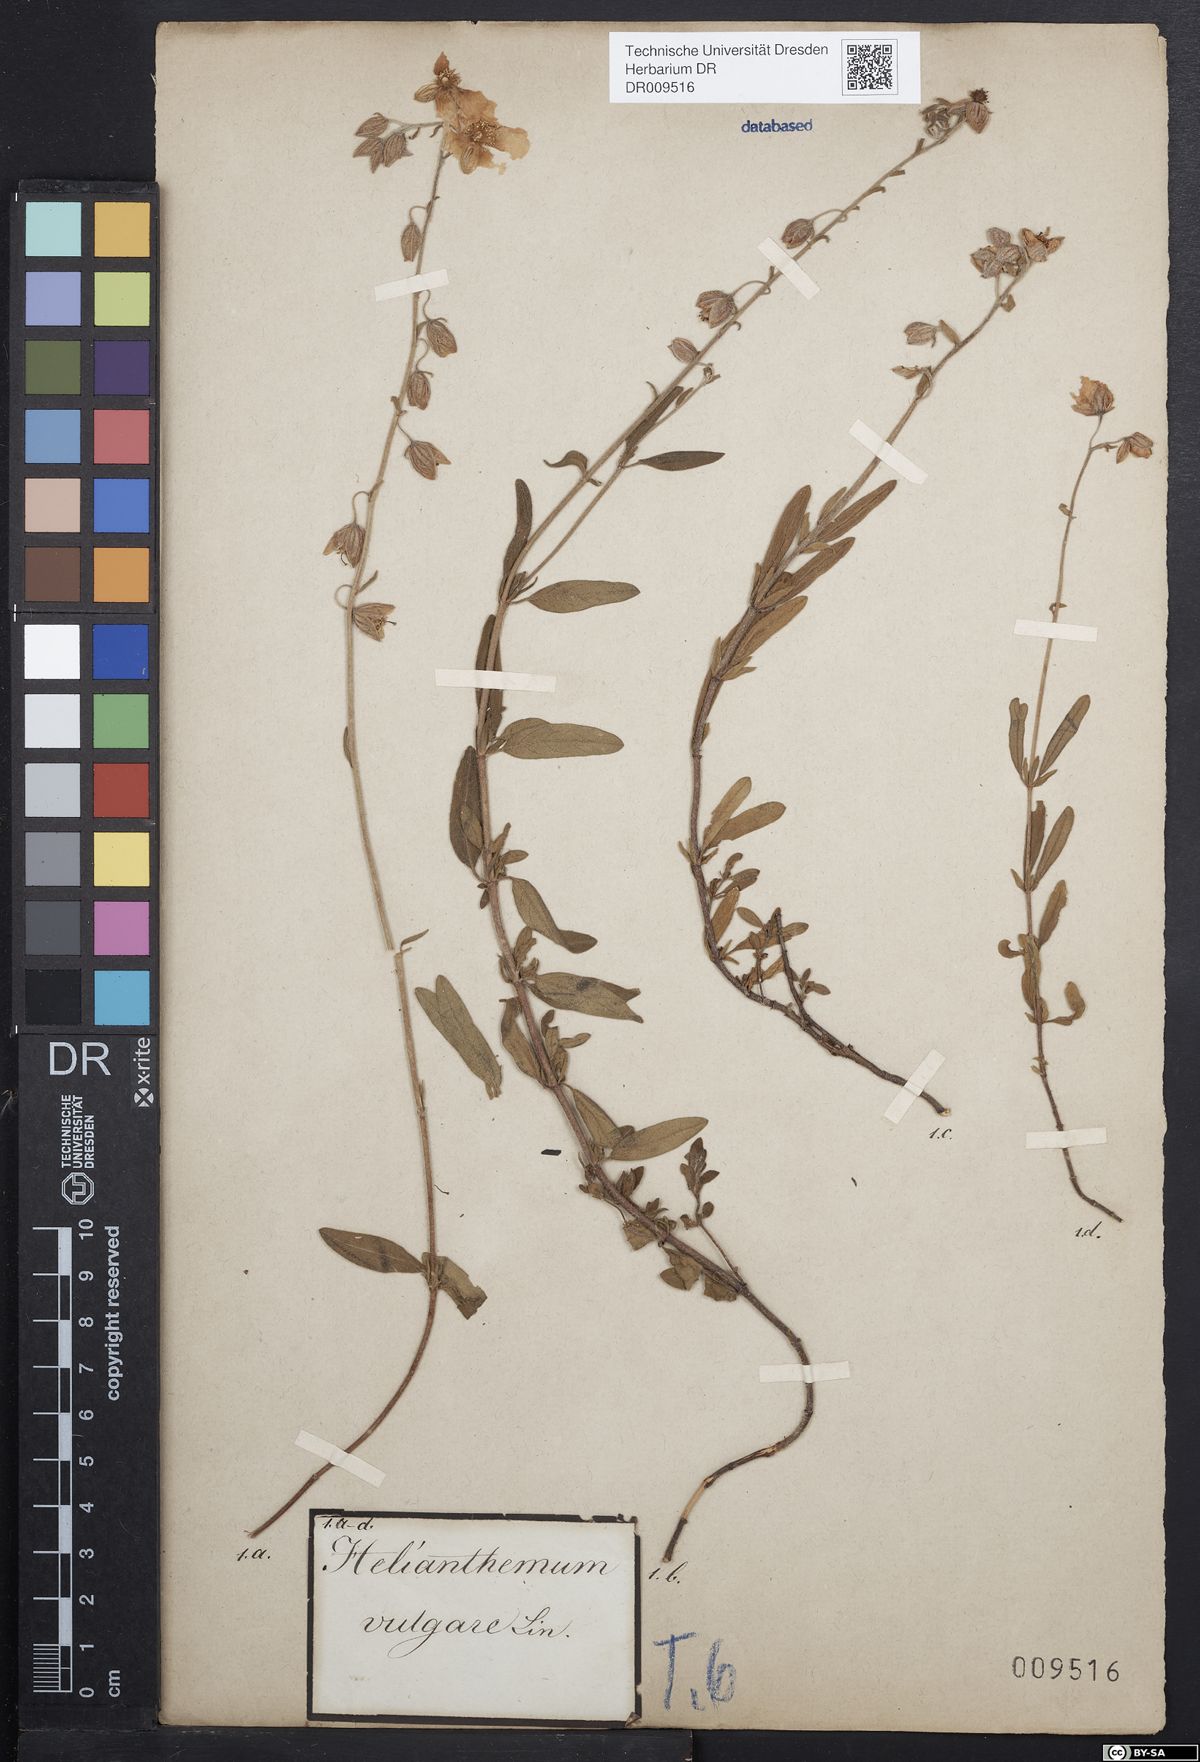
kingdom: Plantae
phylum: Tracheophyta
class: Magnoliopsida
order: Malvales
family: Cistaceae
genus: Helianthemum
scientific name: Helianthemum nummularium
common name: Common rock-rose
